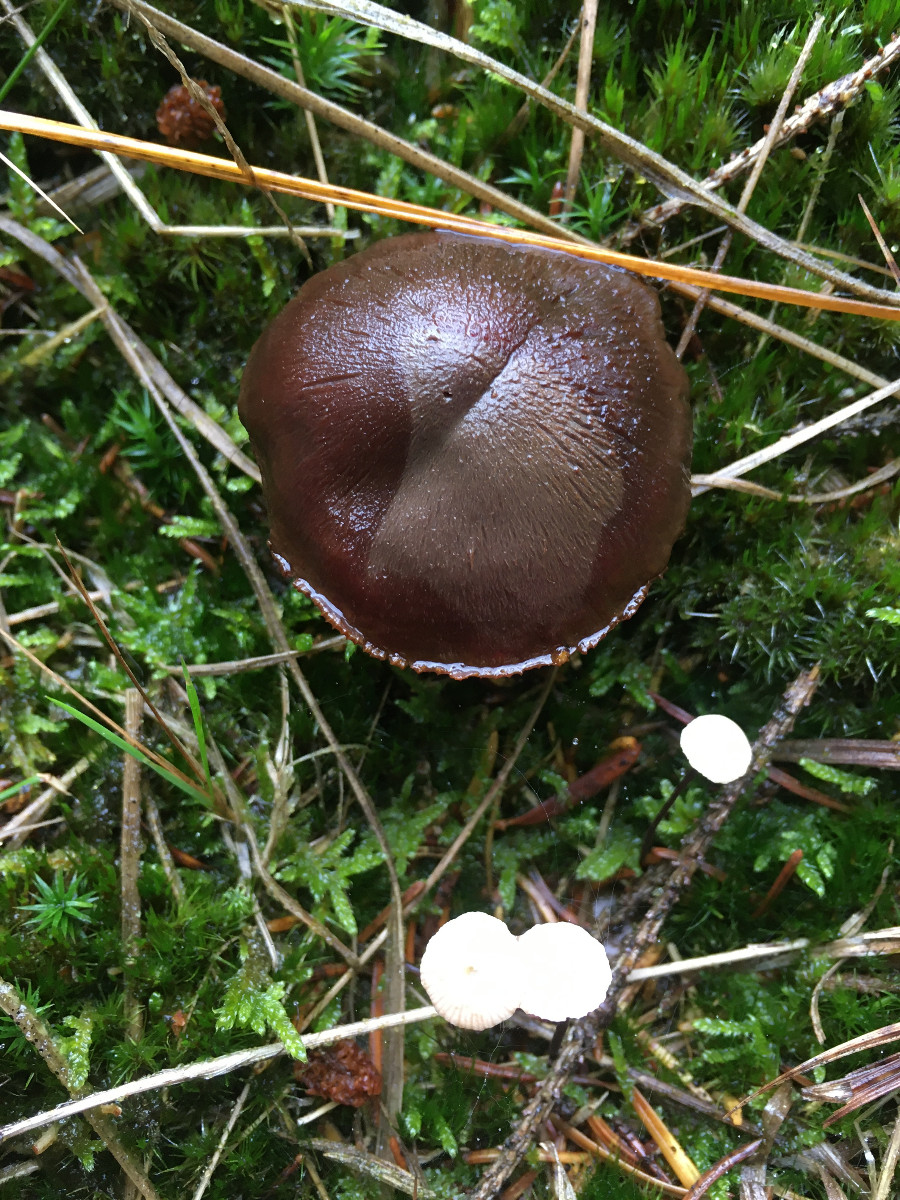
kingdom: Fungi
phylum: Basidiomycota
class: Agaricomycetes
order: Agaricales
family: Cortinariaceae
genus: Cortinarius
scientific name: Cortinarius
